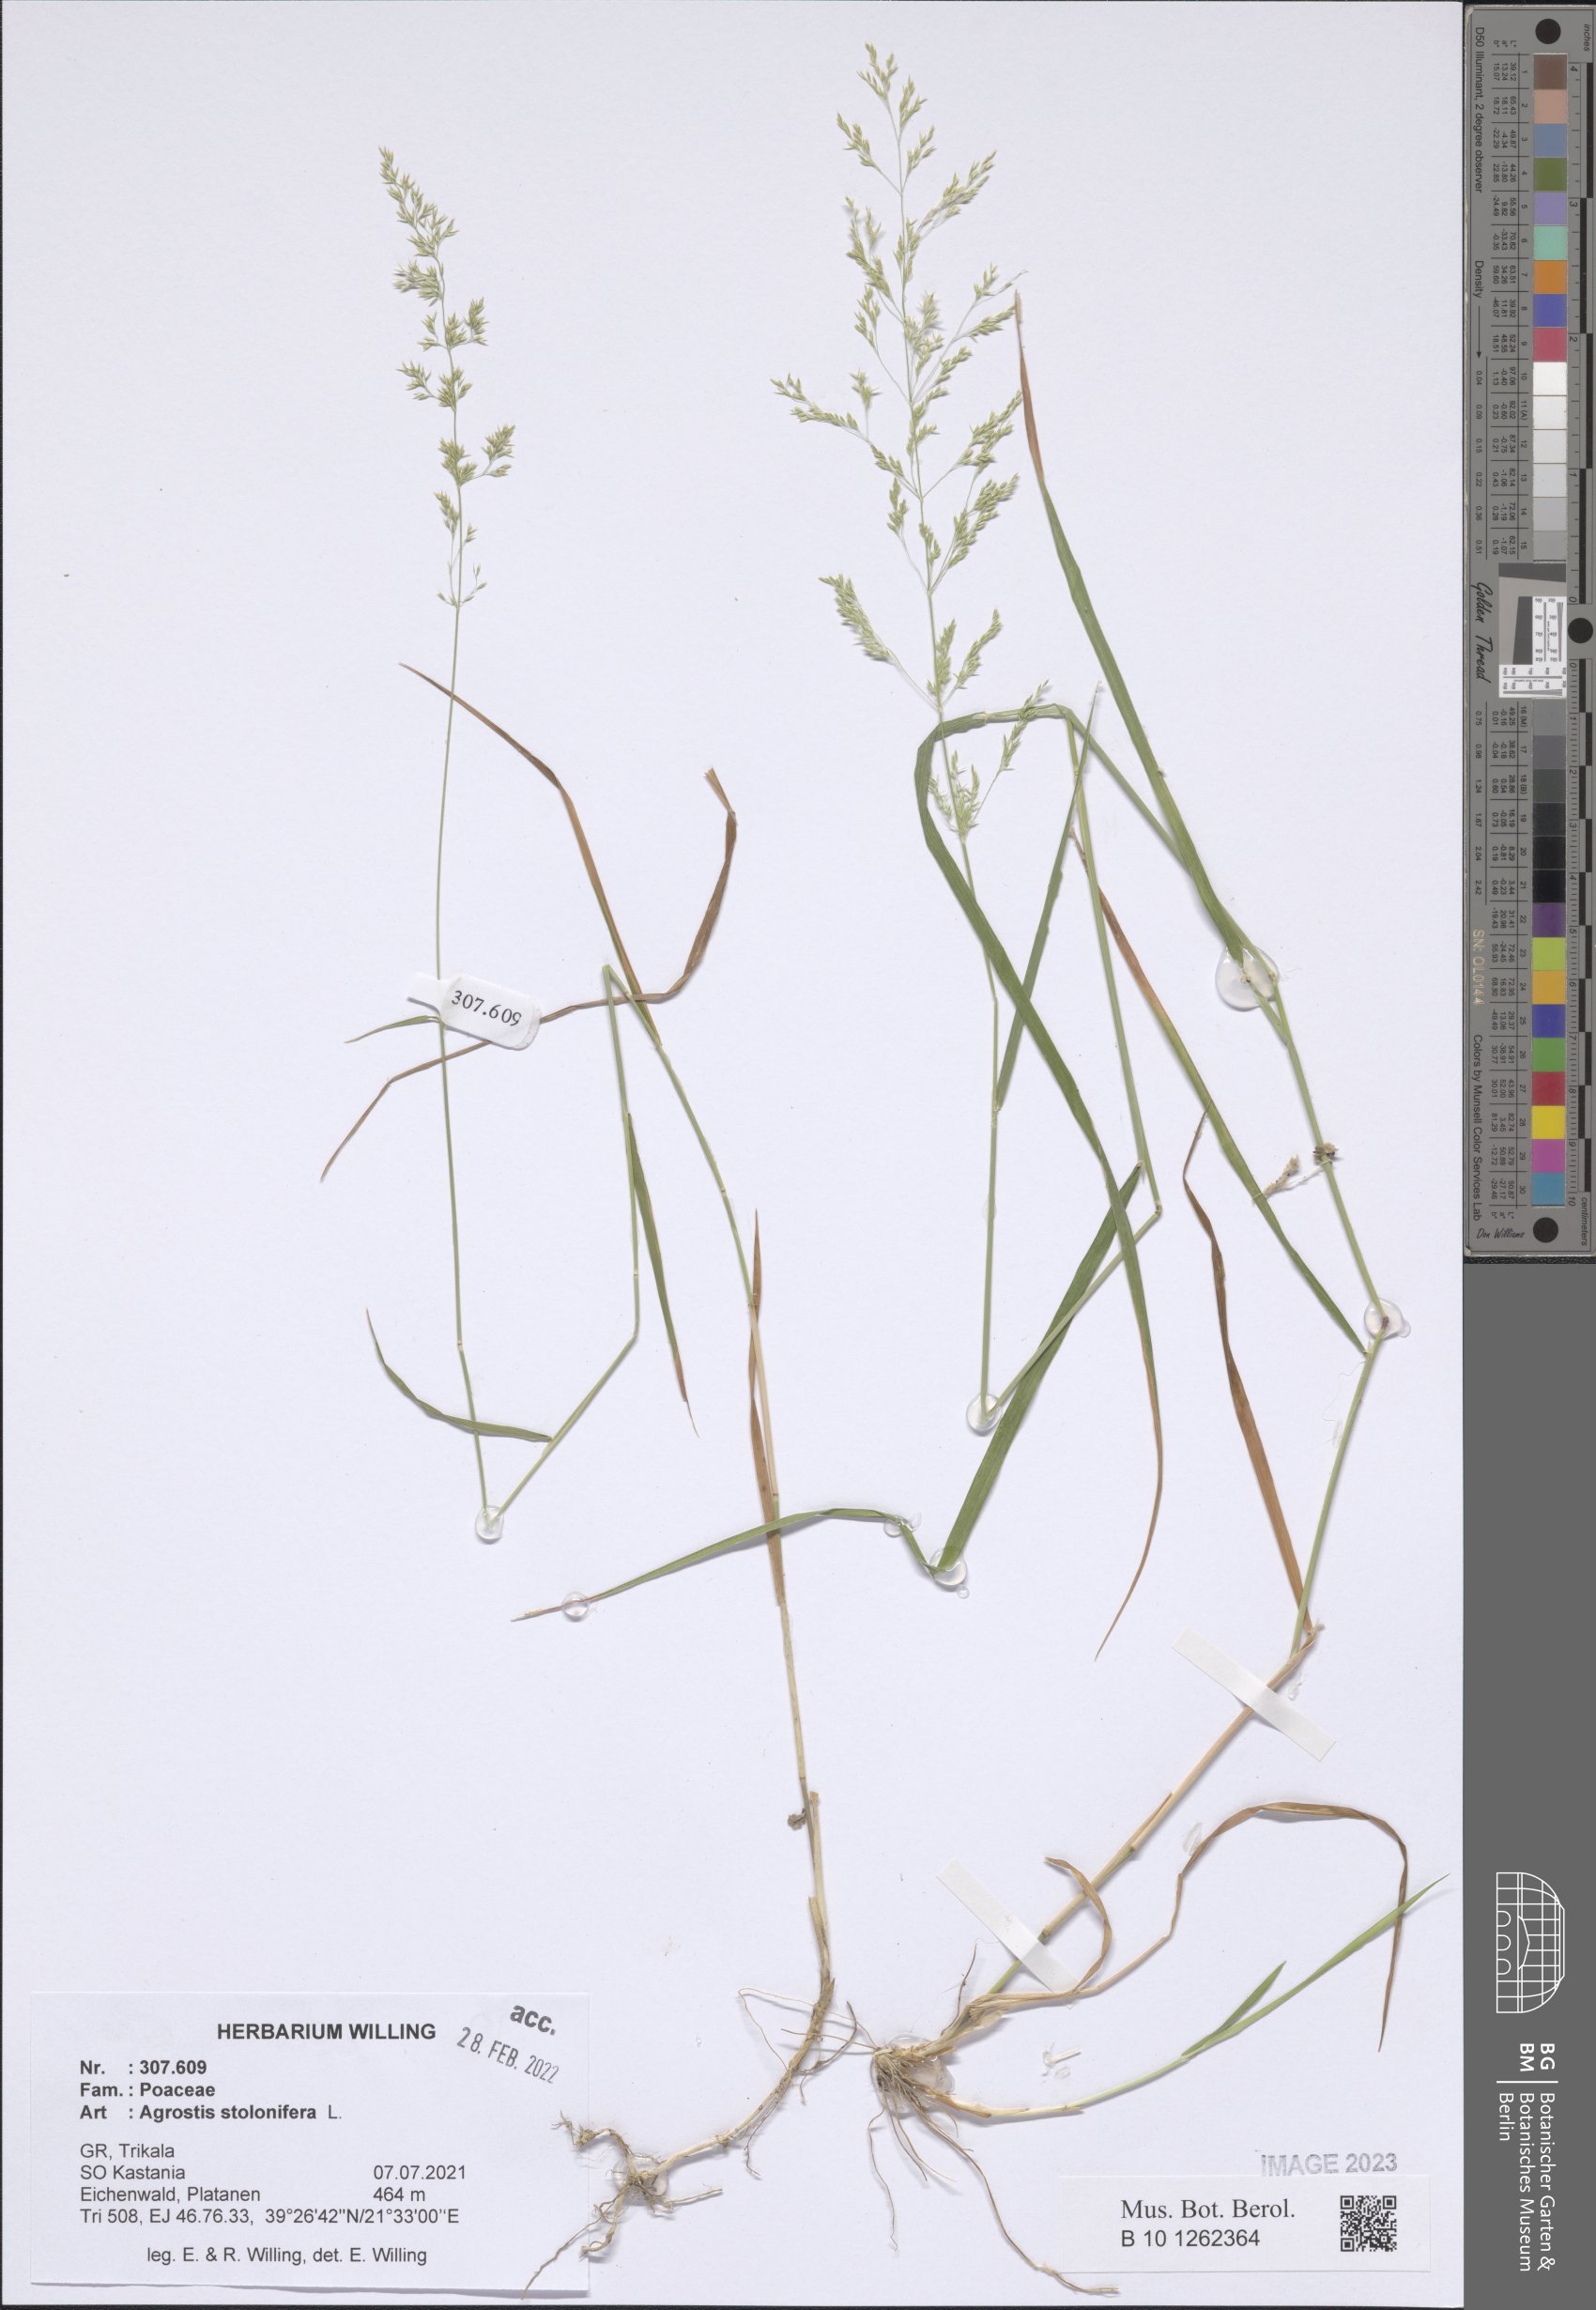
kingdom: Plantae
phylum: Tracheophyta
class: Liliopsida
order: Poales
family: Poaceae
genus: Agrostis
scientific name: Agrostis stolonifera
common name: Creeping bentgrass
